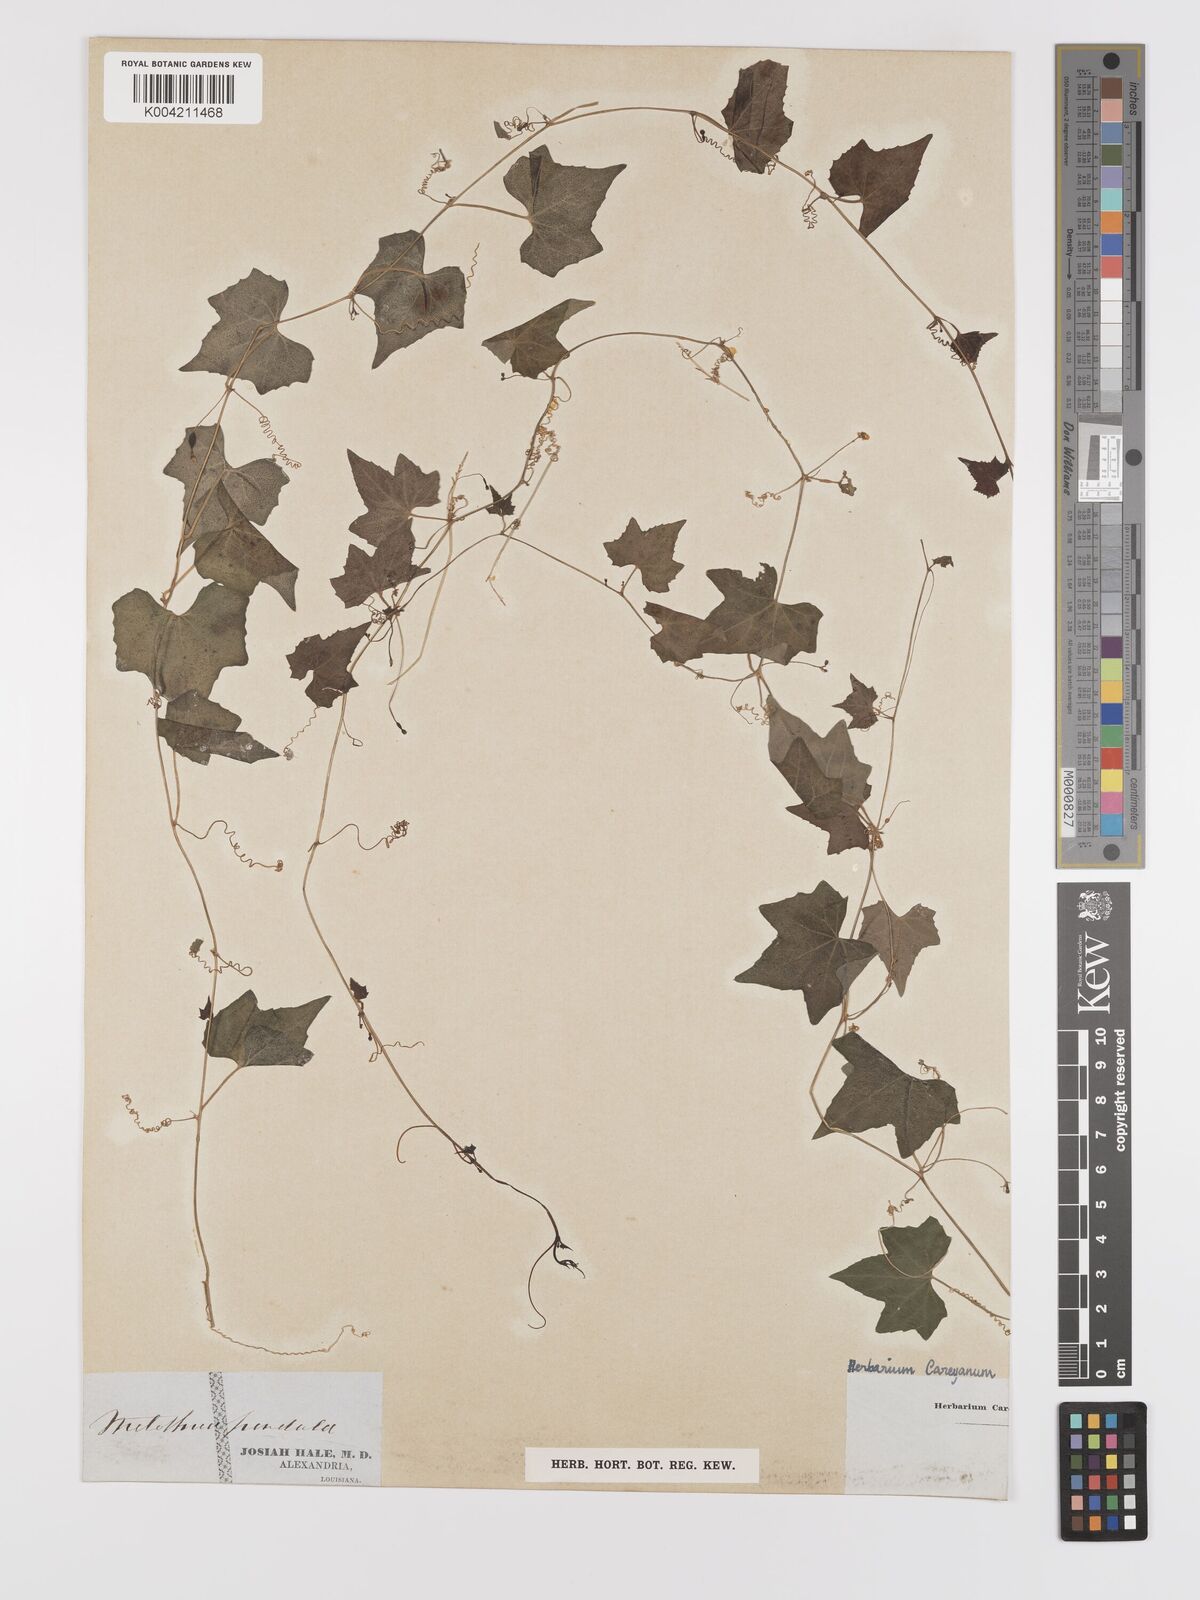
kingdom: Plantae
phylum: Tracheophyta
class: Magnoliopsida
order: Cucurbitales
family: Cucurbitaceae
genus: Melothria
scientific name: Melothria pendula
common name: Creeping-cucumber
